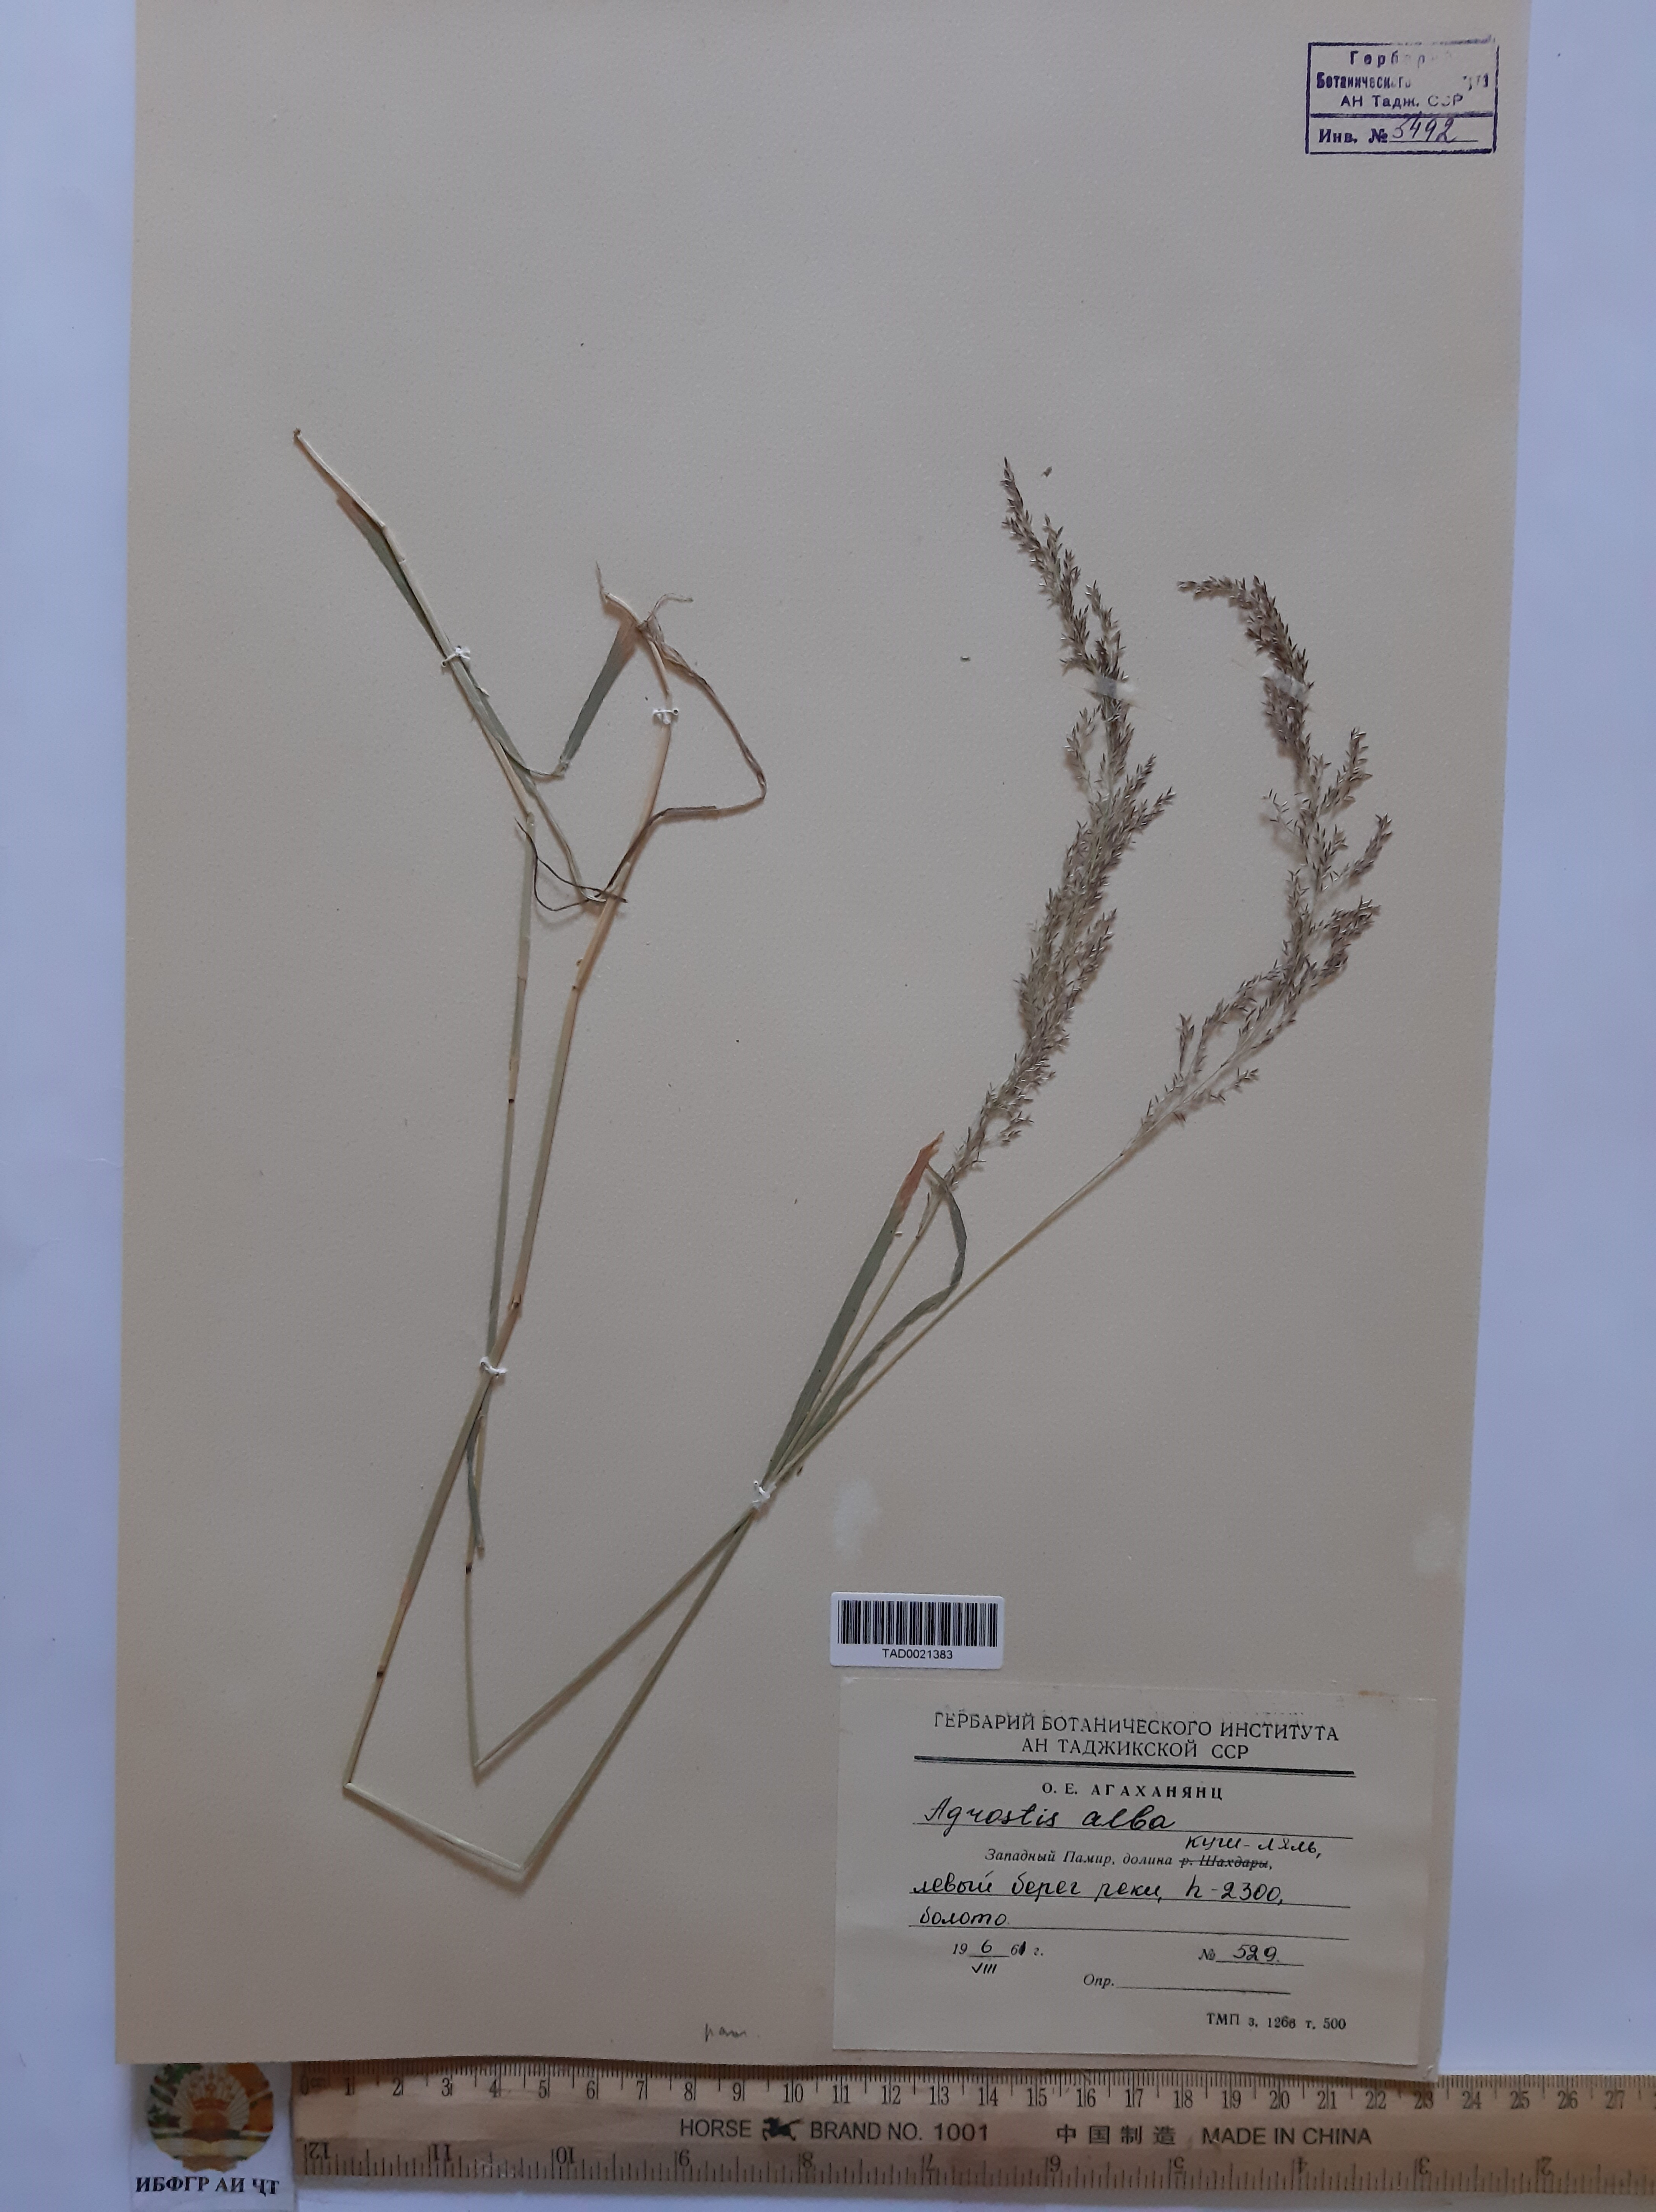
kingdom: Plantae
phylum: Tracheophyta
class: Liliopsida
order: Poales
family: Poaceae
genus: Poa
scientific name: Poa nemoralis
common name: Wood bluegrass
